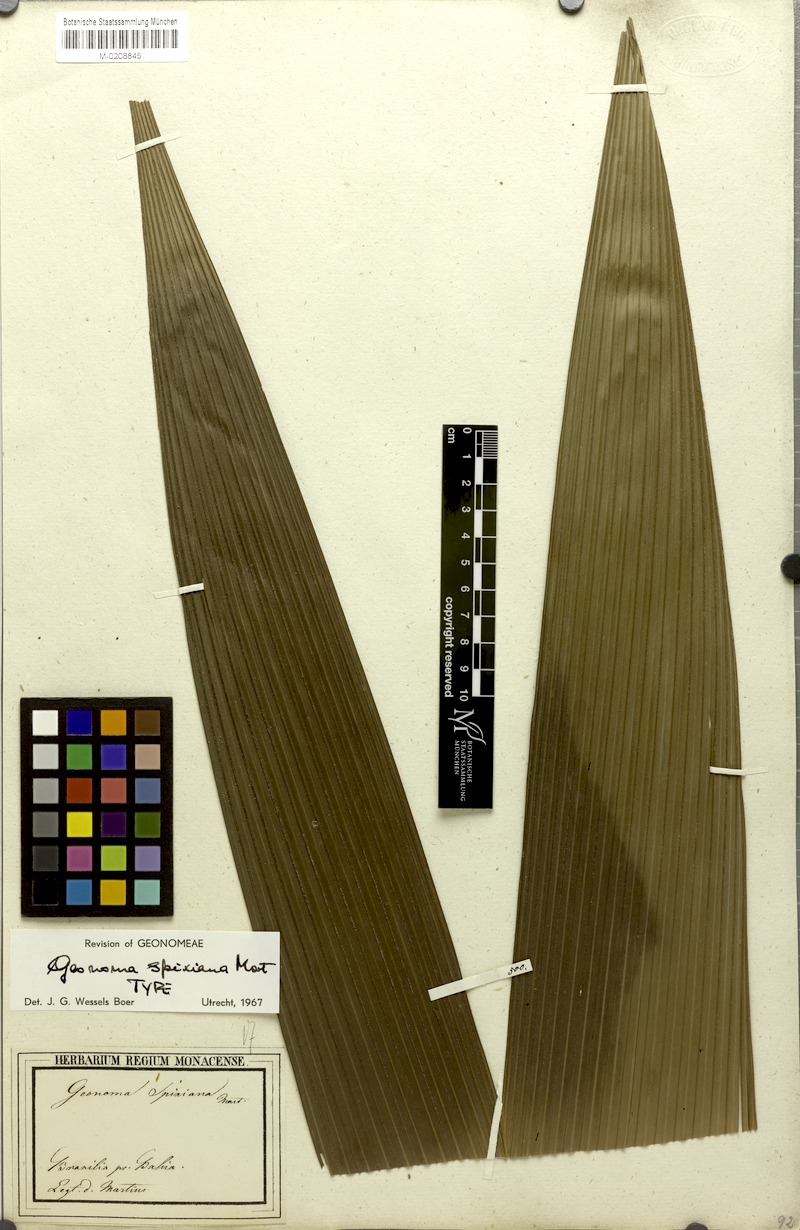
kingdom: Plantae
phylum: Tracheophyta
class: Liliopsida
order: Arecales
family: Arecaceae
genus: Geonoma
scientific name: Geonoma maxima
